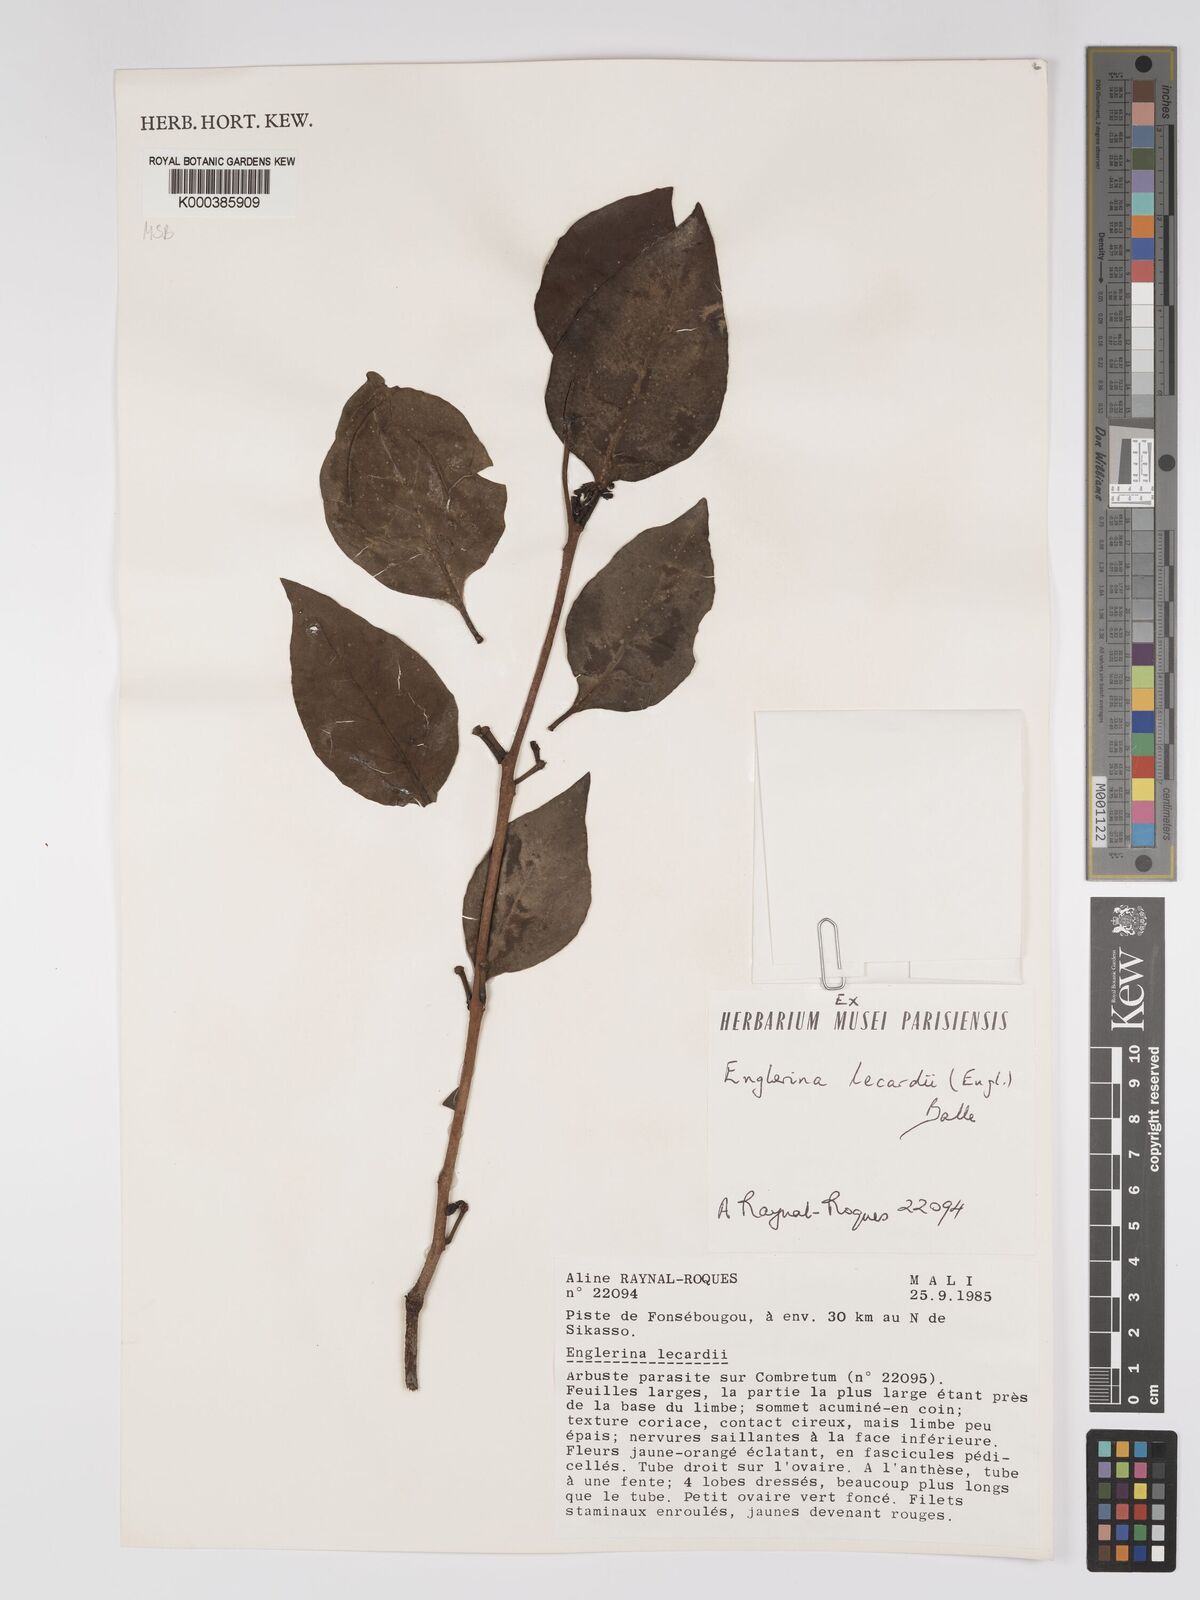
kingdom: Plantae
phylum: Tracheophyta
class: Magnoliopsida
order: Santalales
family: Loranthaceae
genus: Englerina
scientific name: Englerina lecardii
